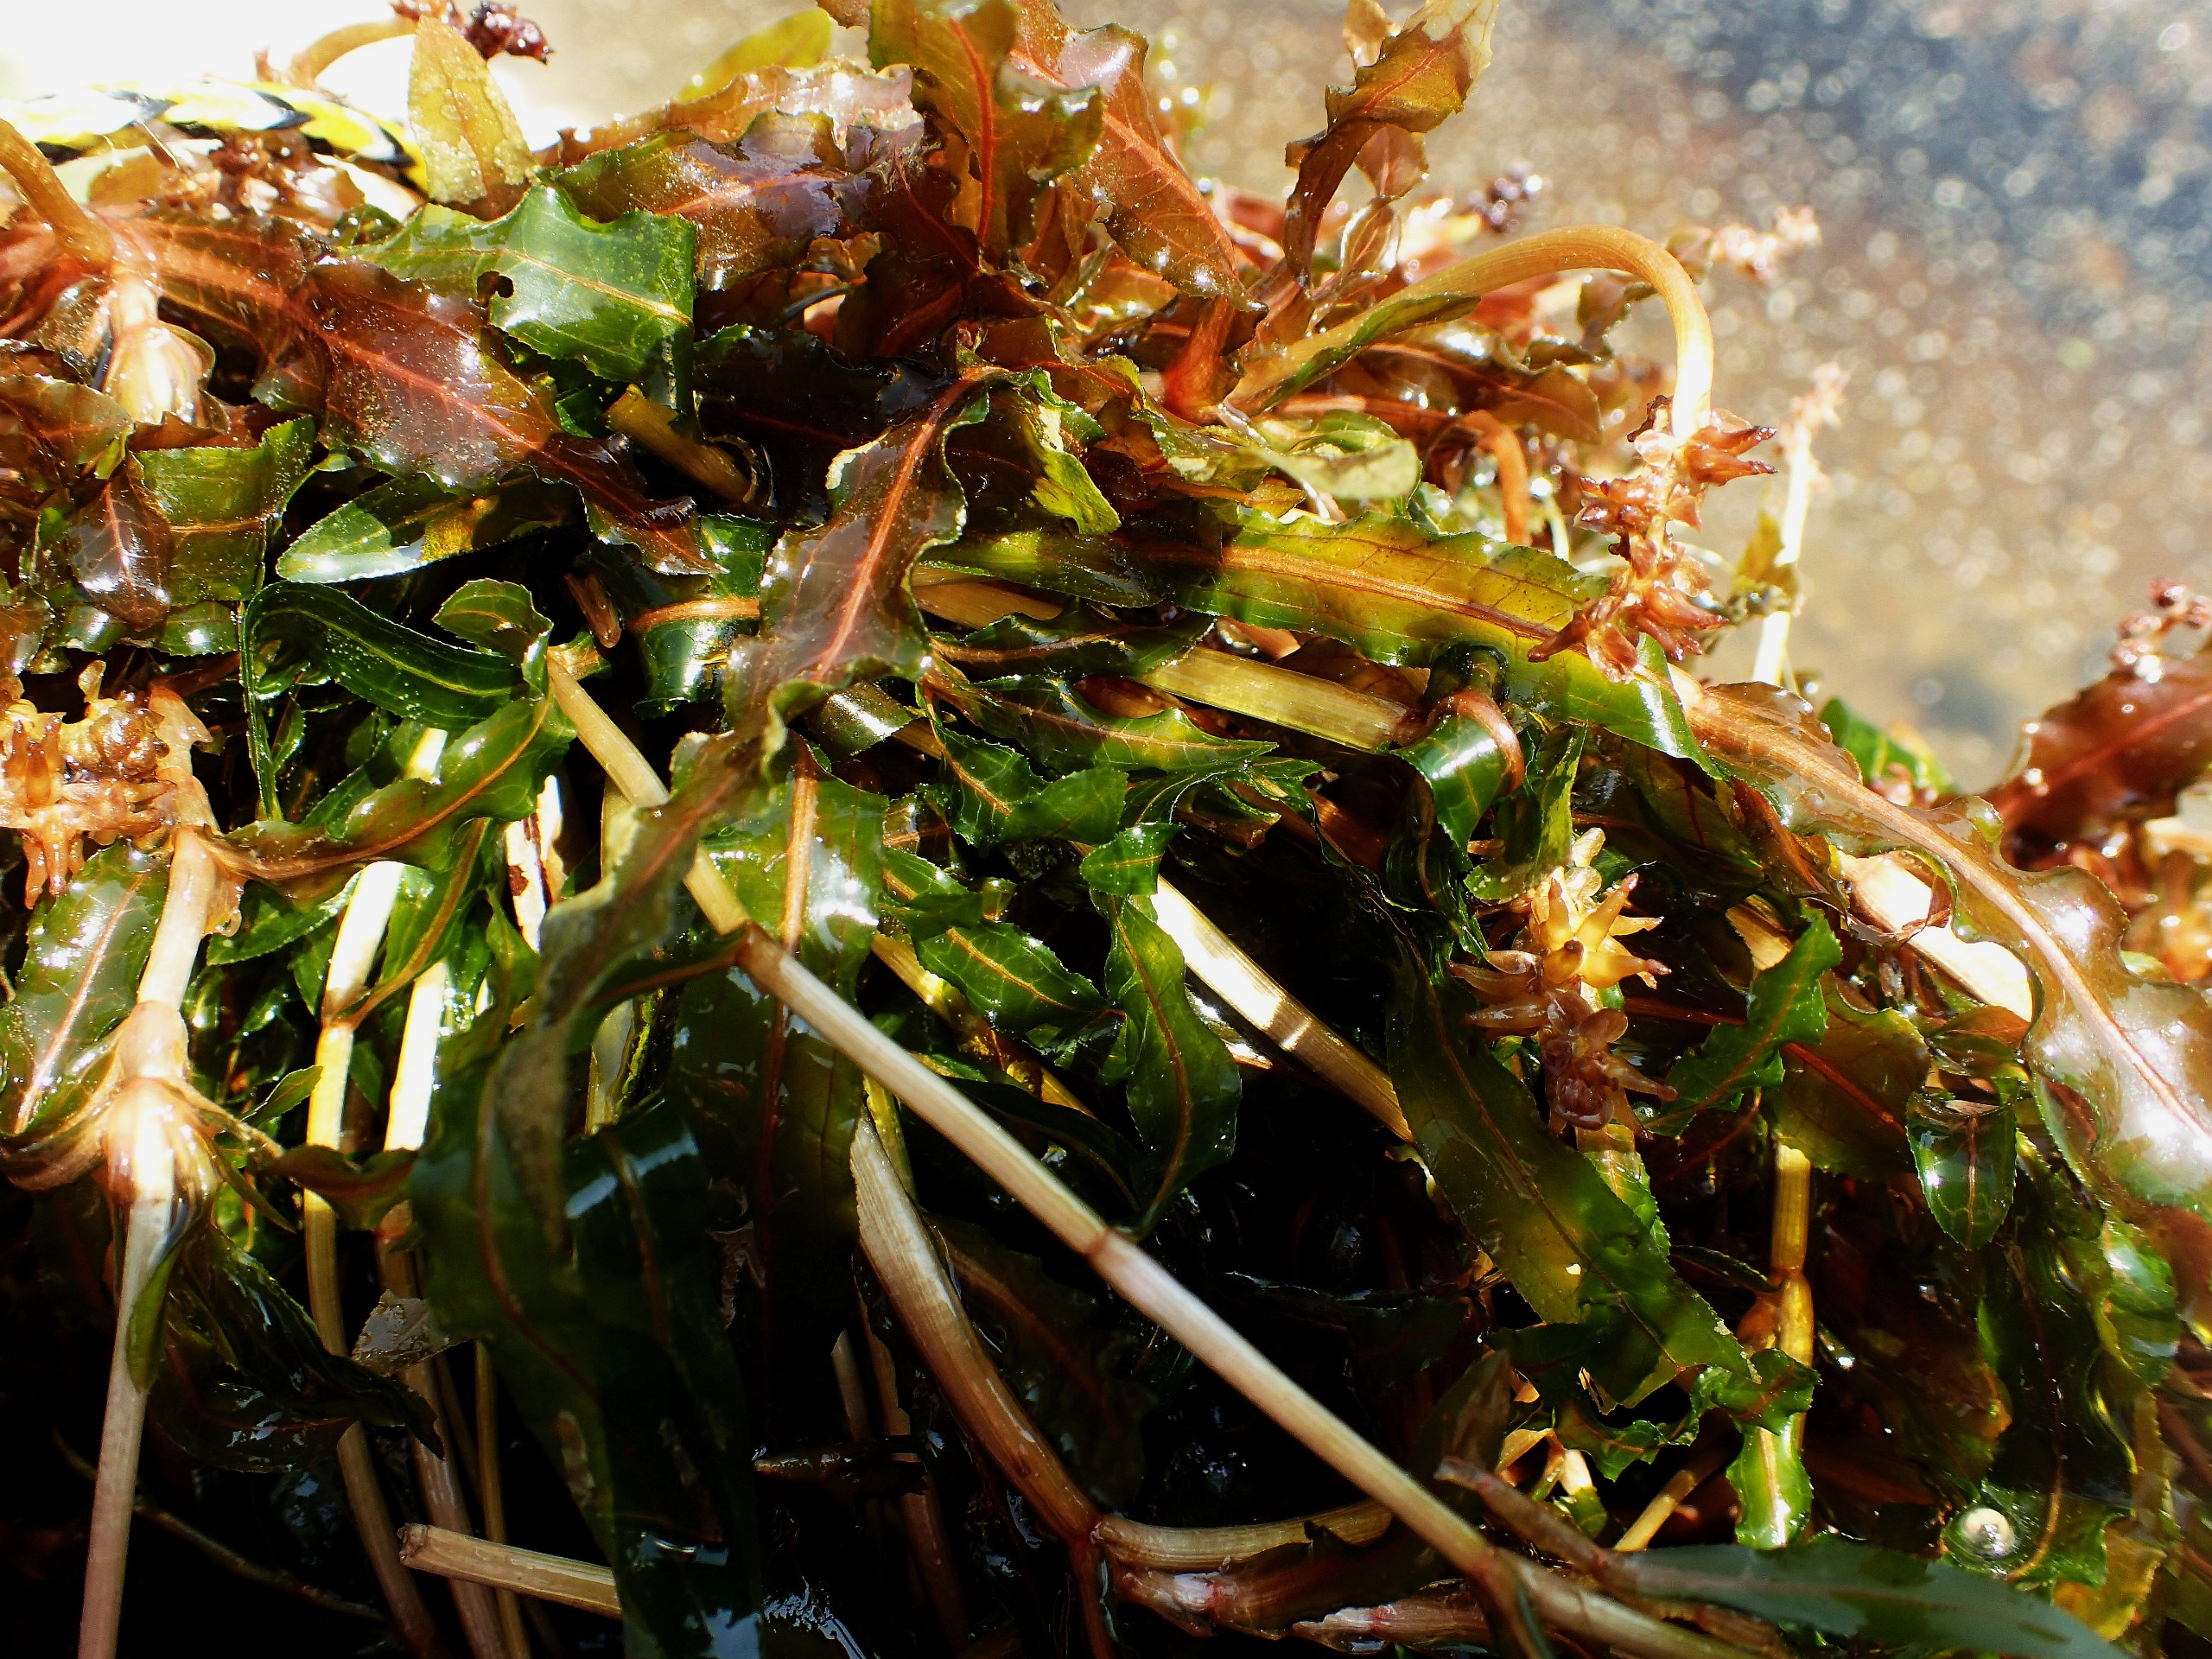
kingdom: Plantae
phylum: Tracheophyta
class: Liliopsida
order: Alismatales
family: Potamogetonaceae
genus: Potamogeton
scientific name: Potamogeton crispus
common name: Kruset vandaks
